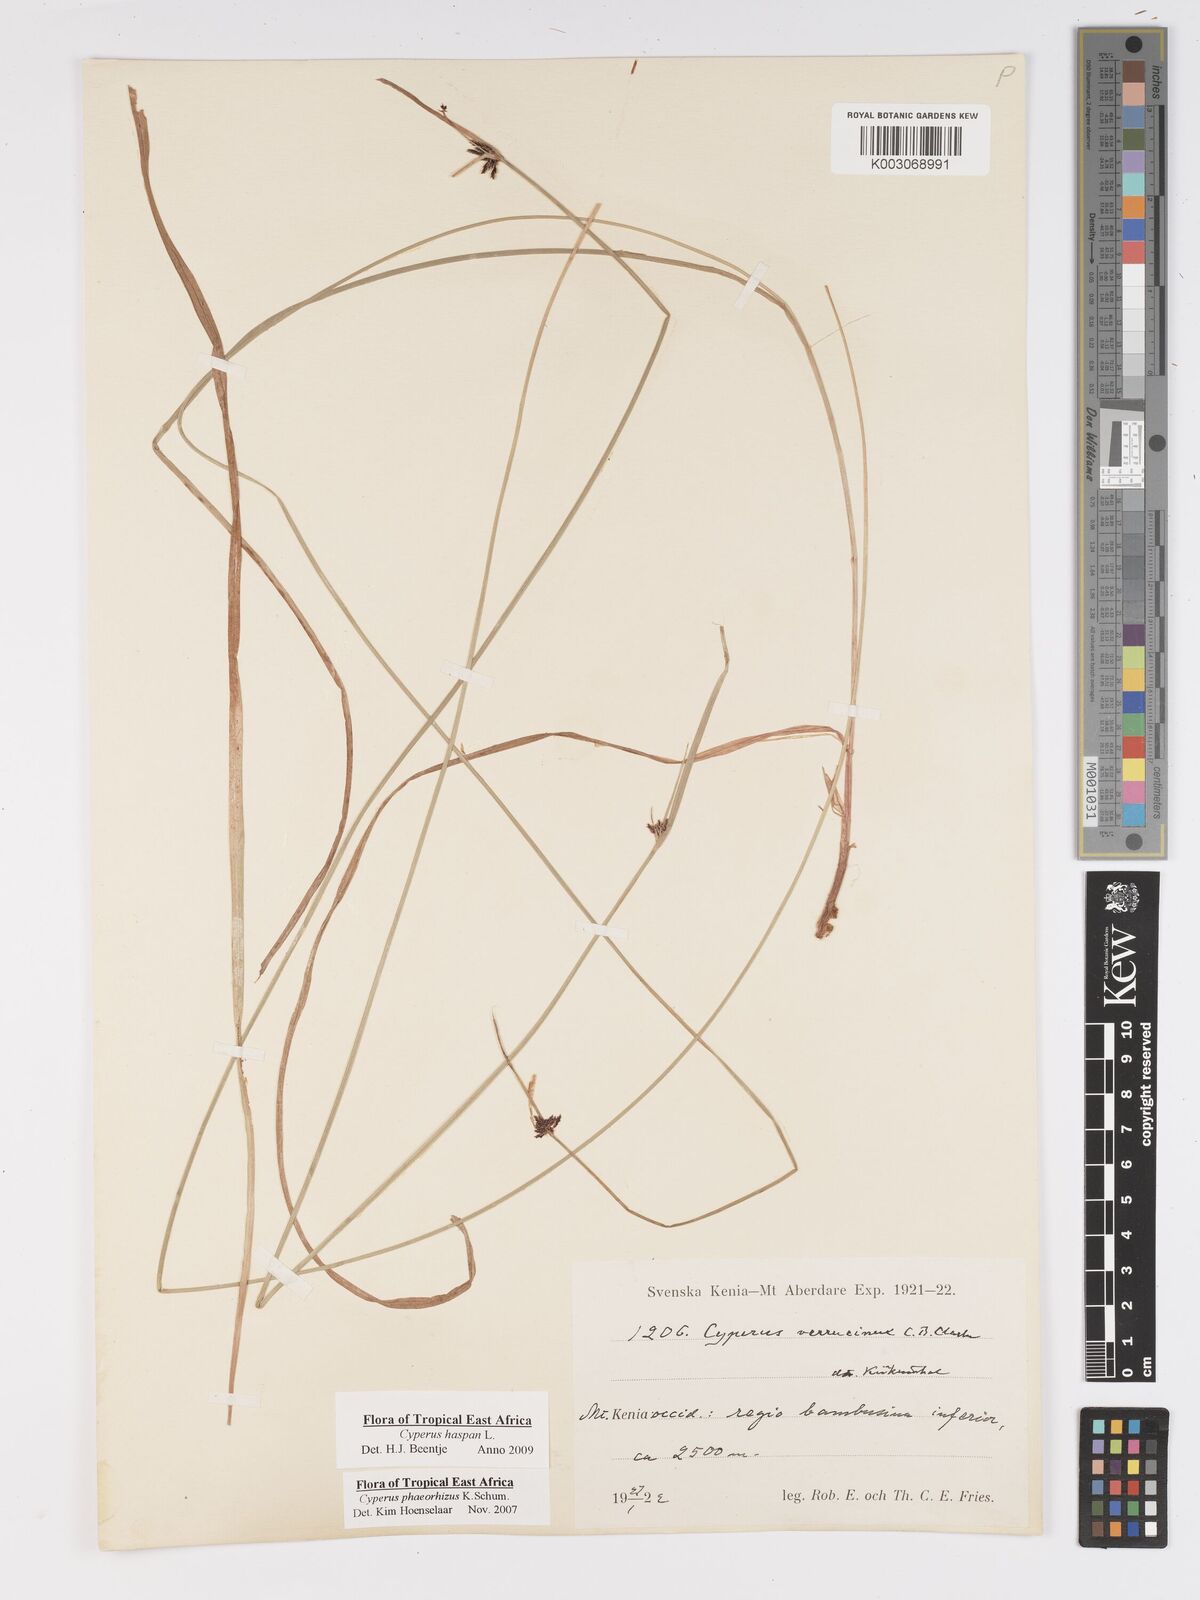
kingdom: Plantae
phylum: Tracheophyta
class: Liliopsida
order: Poales
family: Cyperaceae
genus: Cyperus
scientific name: Cyperus haspan
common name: Haspan flatsedge
